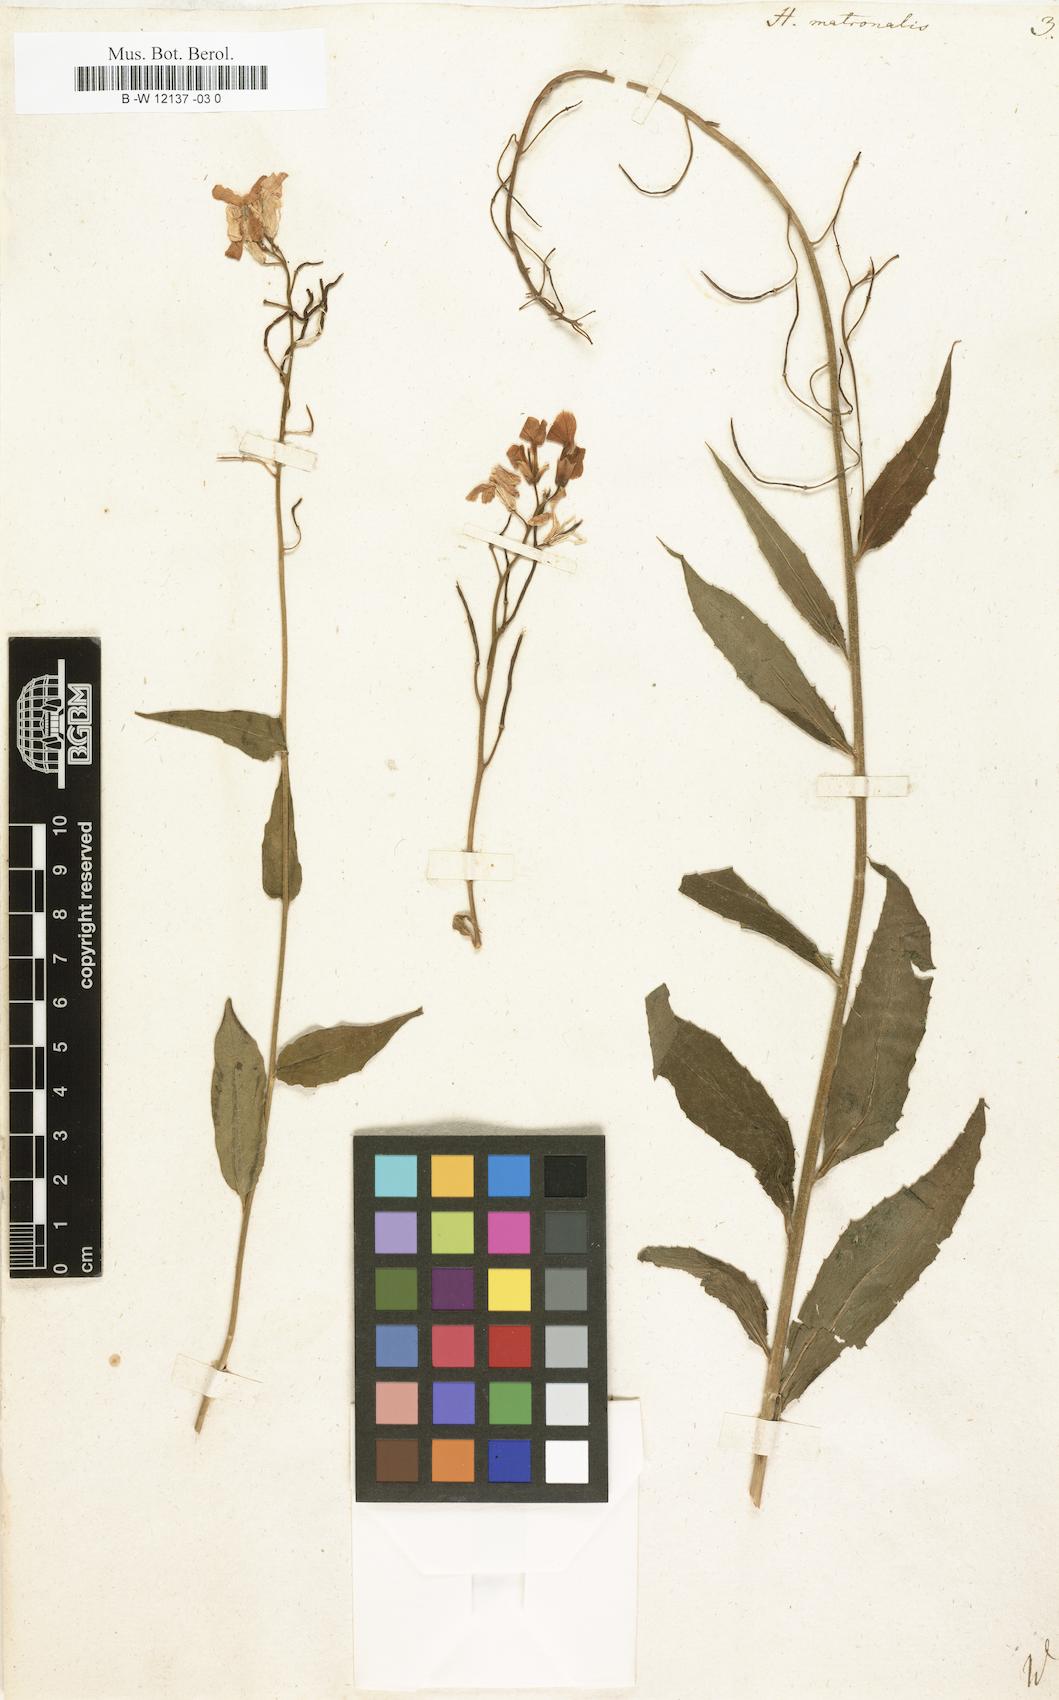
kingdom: Plantae
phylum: Tracheophyta
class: Magnoliopsida
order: Brassicales
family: Brassicaceae
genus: Hesperis
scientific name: Hesperis matronalis
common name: Dame's-violet
